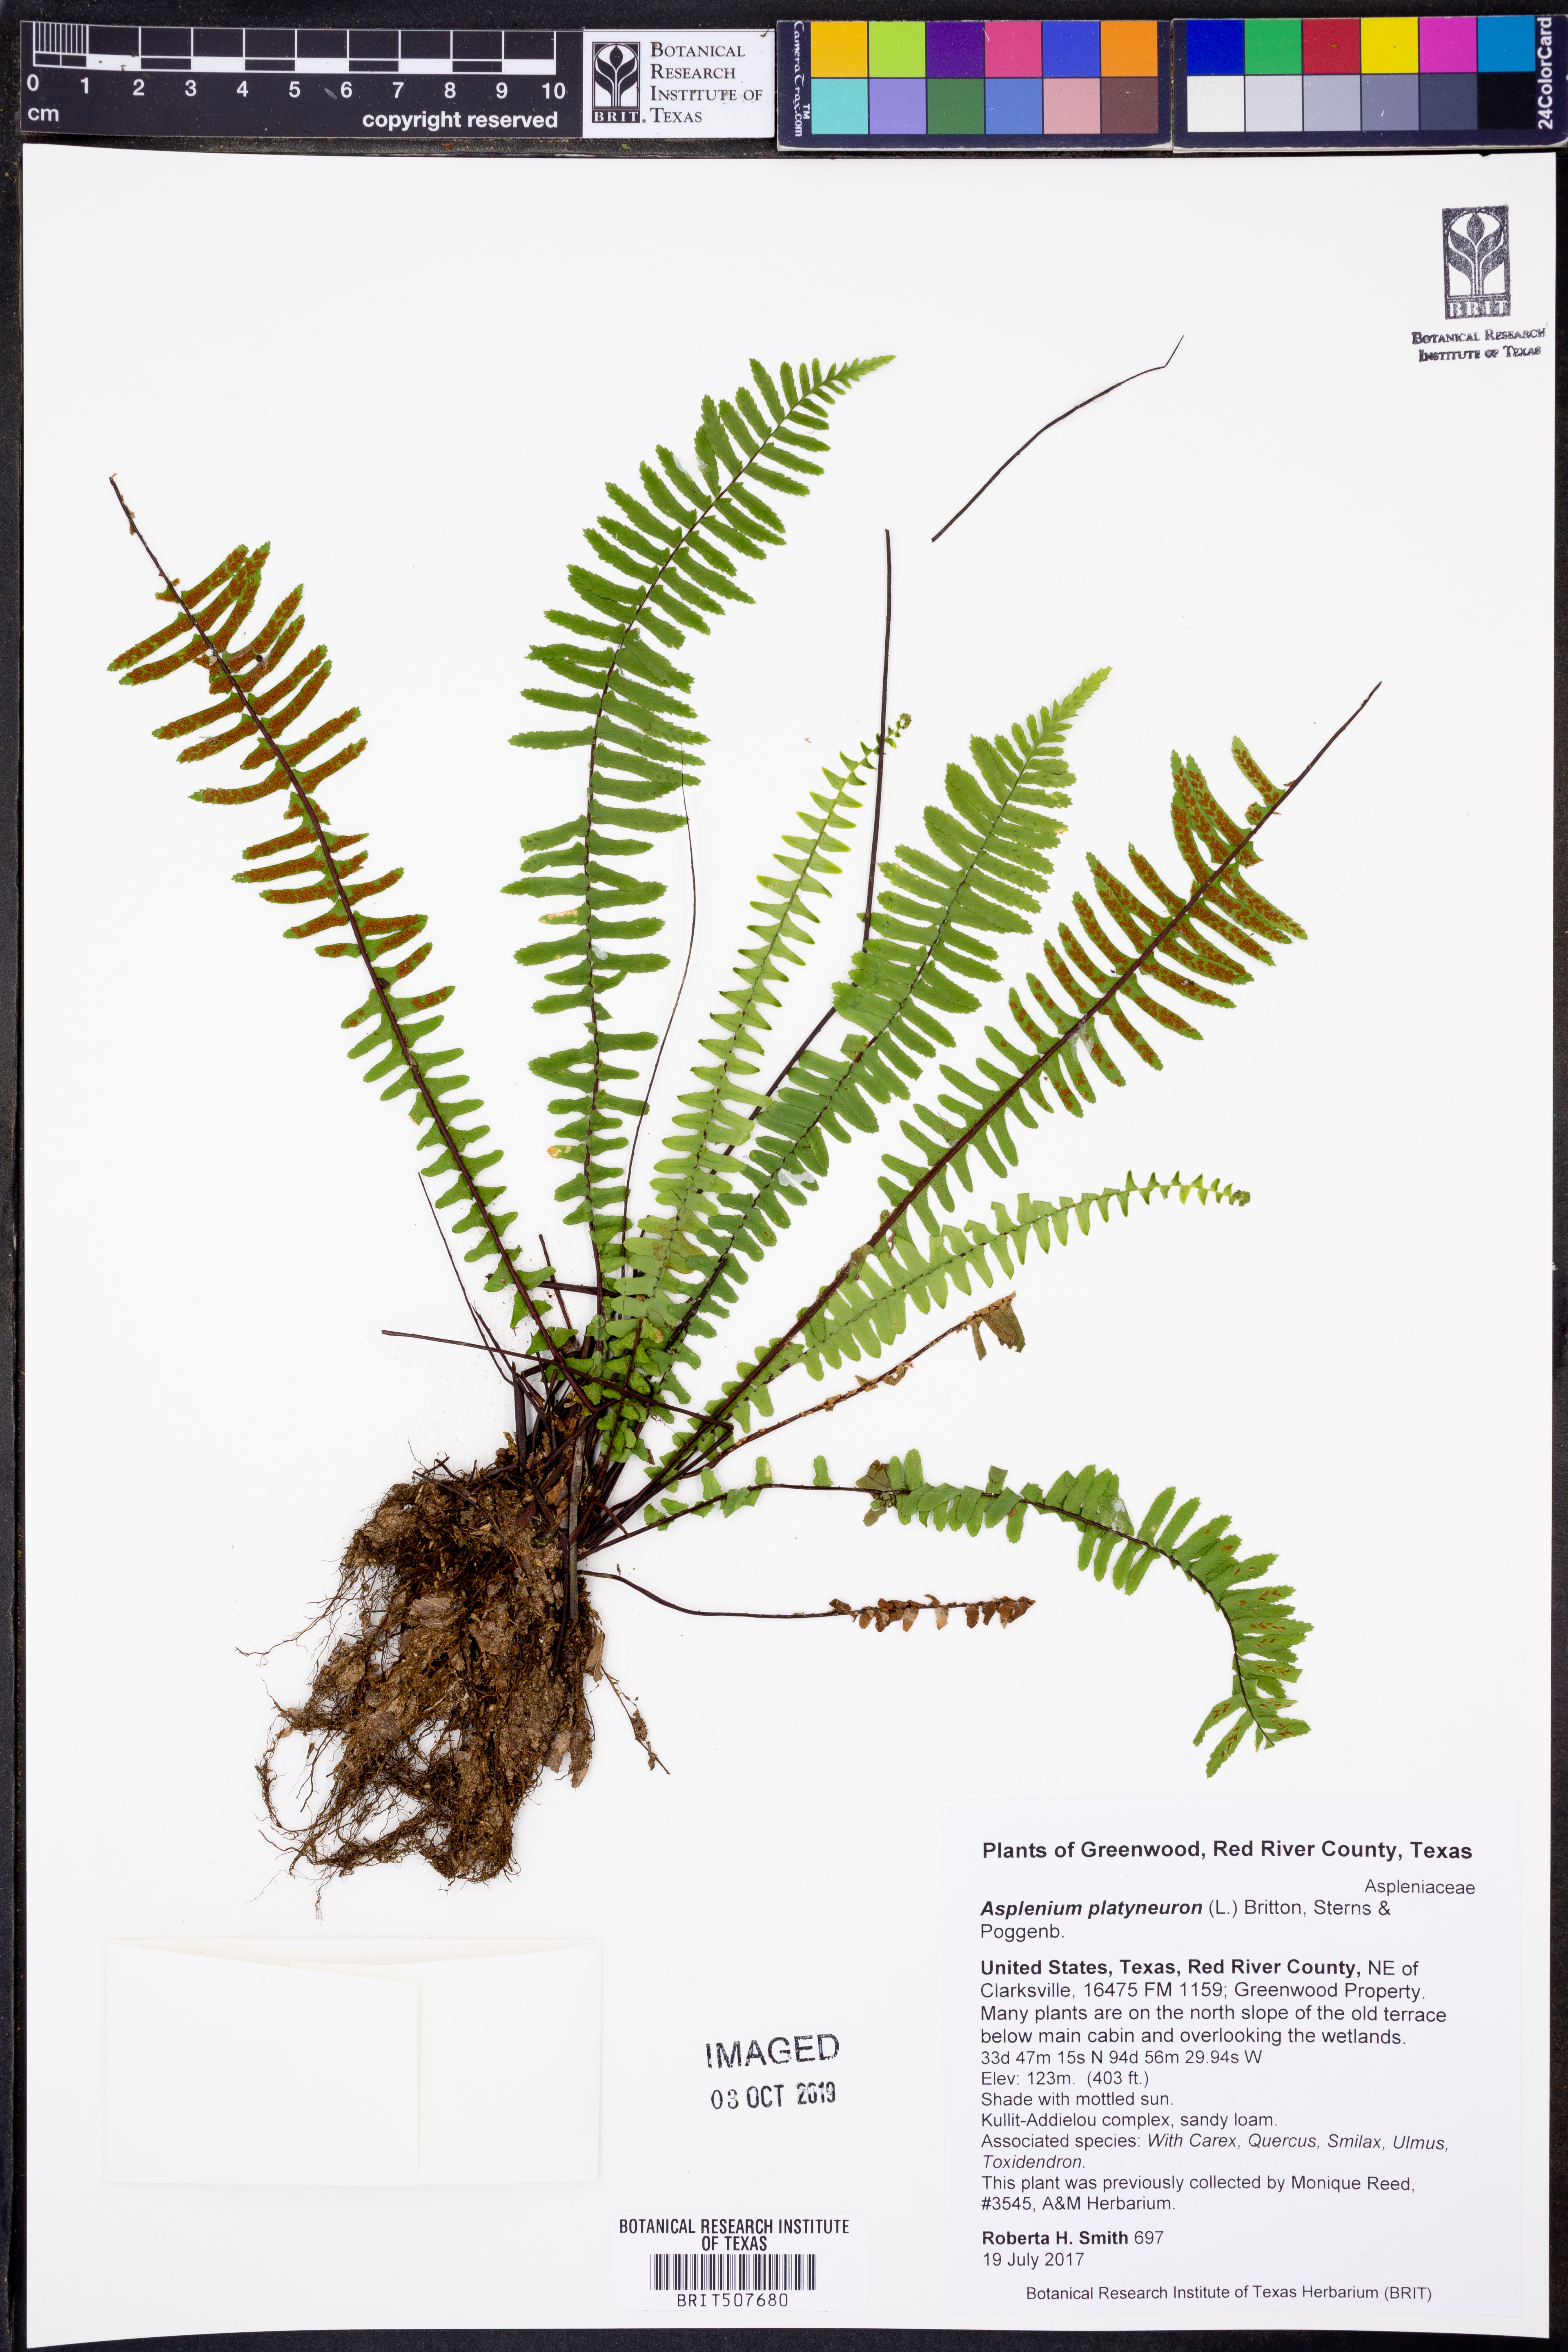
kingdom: Plantae
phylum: Tracheophyta
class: Polypodiopsida
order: Polypodiales
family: Aspleniaceae
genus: Asplenium
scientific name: Asplenium platyneuron
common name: Ebony spleenwort
